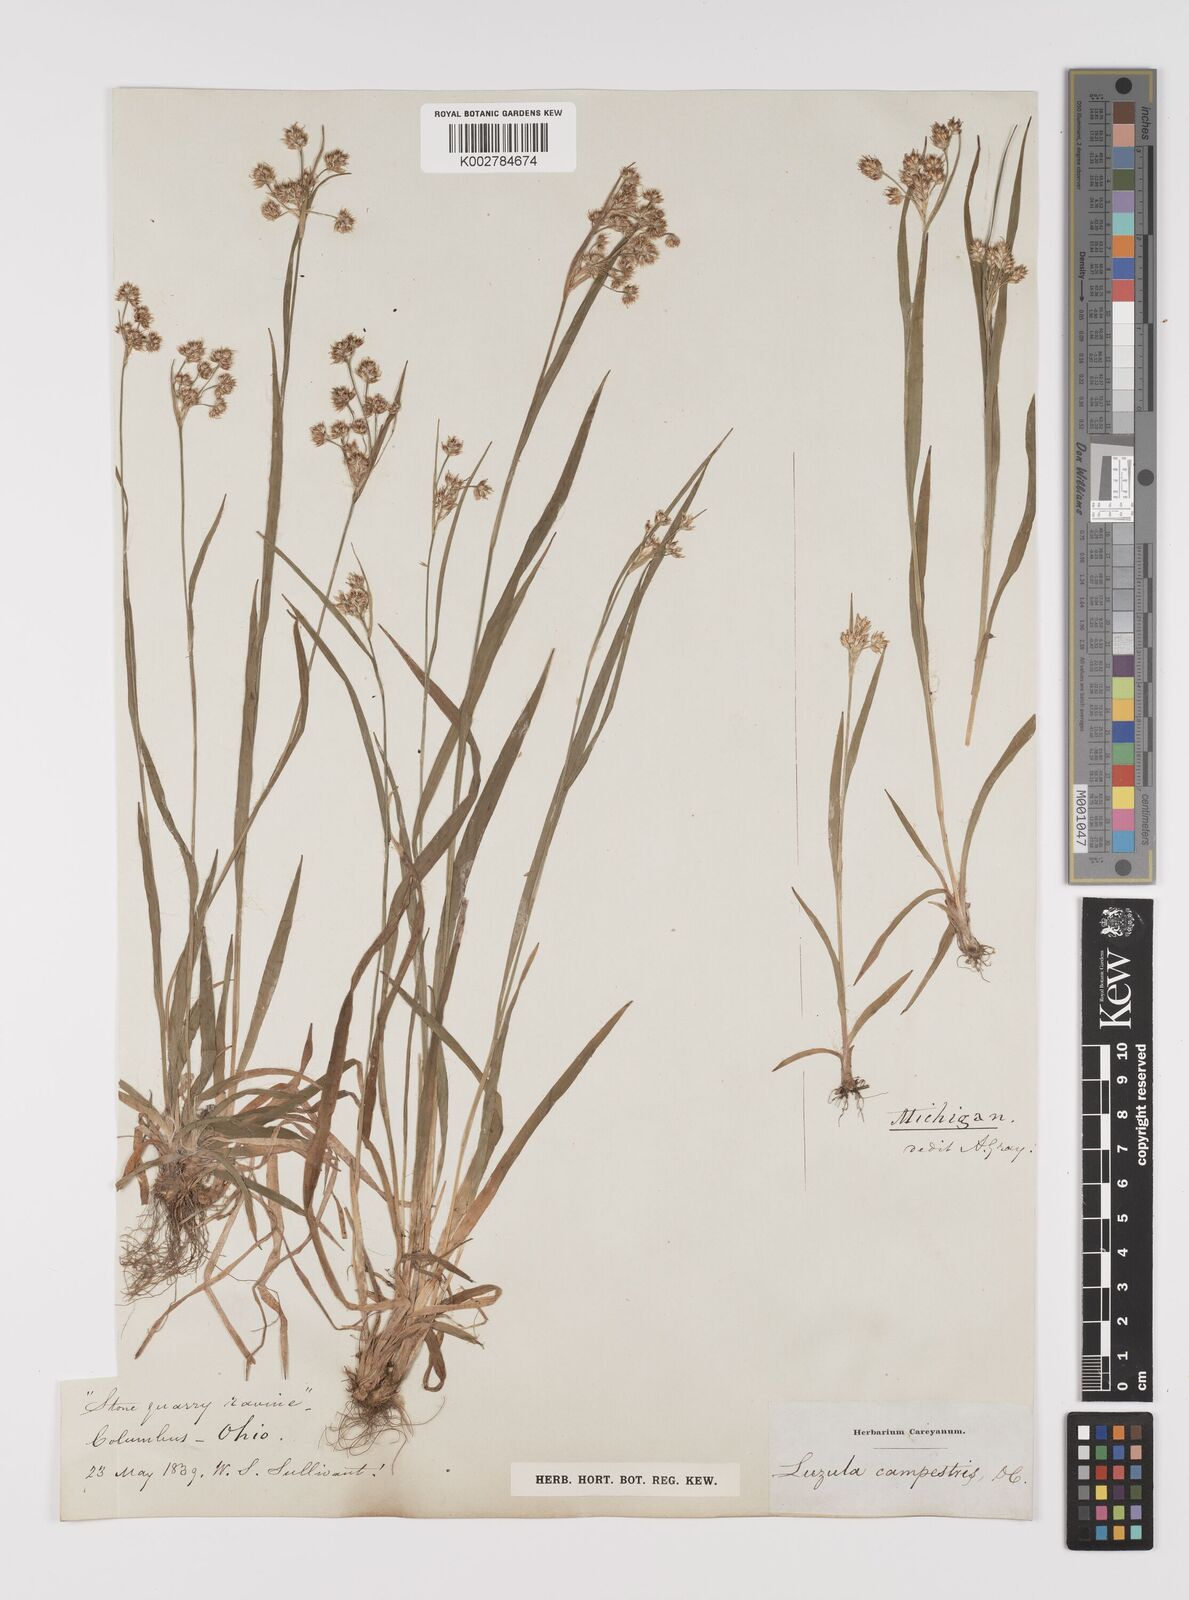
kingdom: Plantae
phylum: Tracheophyta
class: Liliopsida
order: Poales
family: Juncaceae
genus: Luzula
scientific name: Luzula campestris
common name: Field wood-rush
